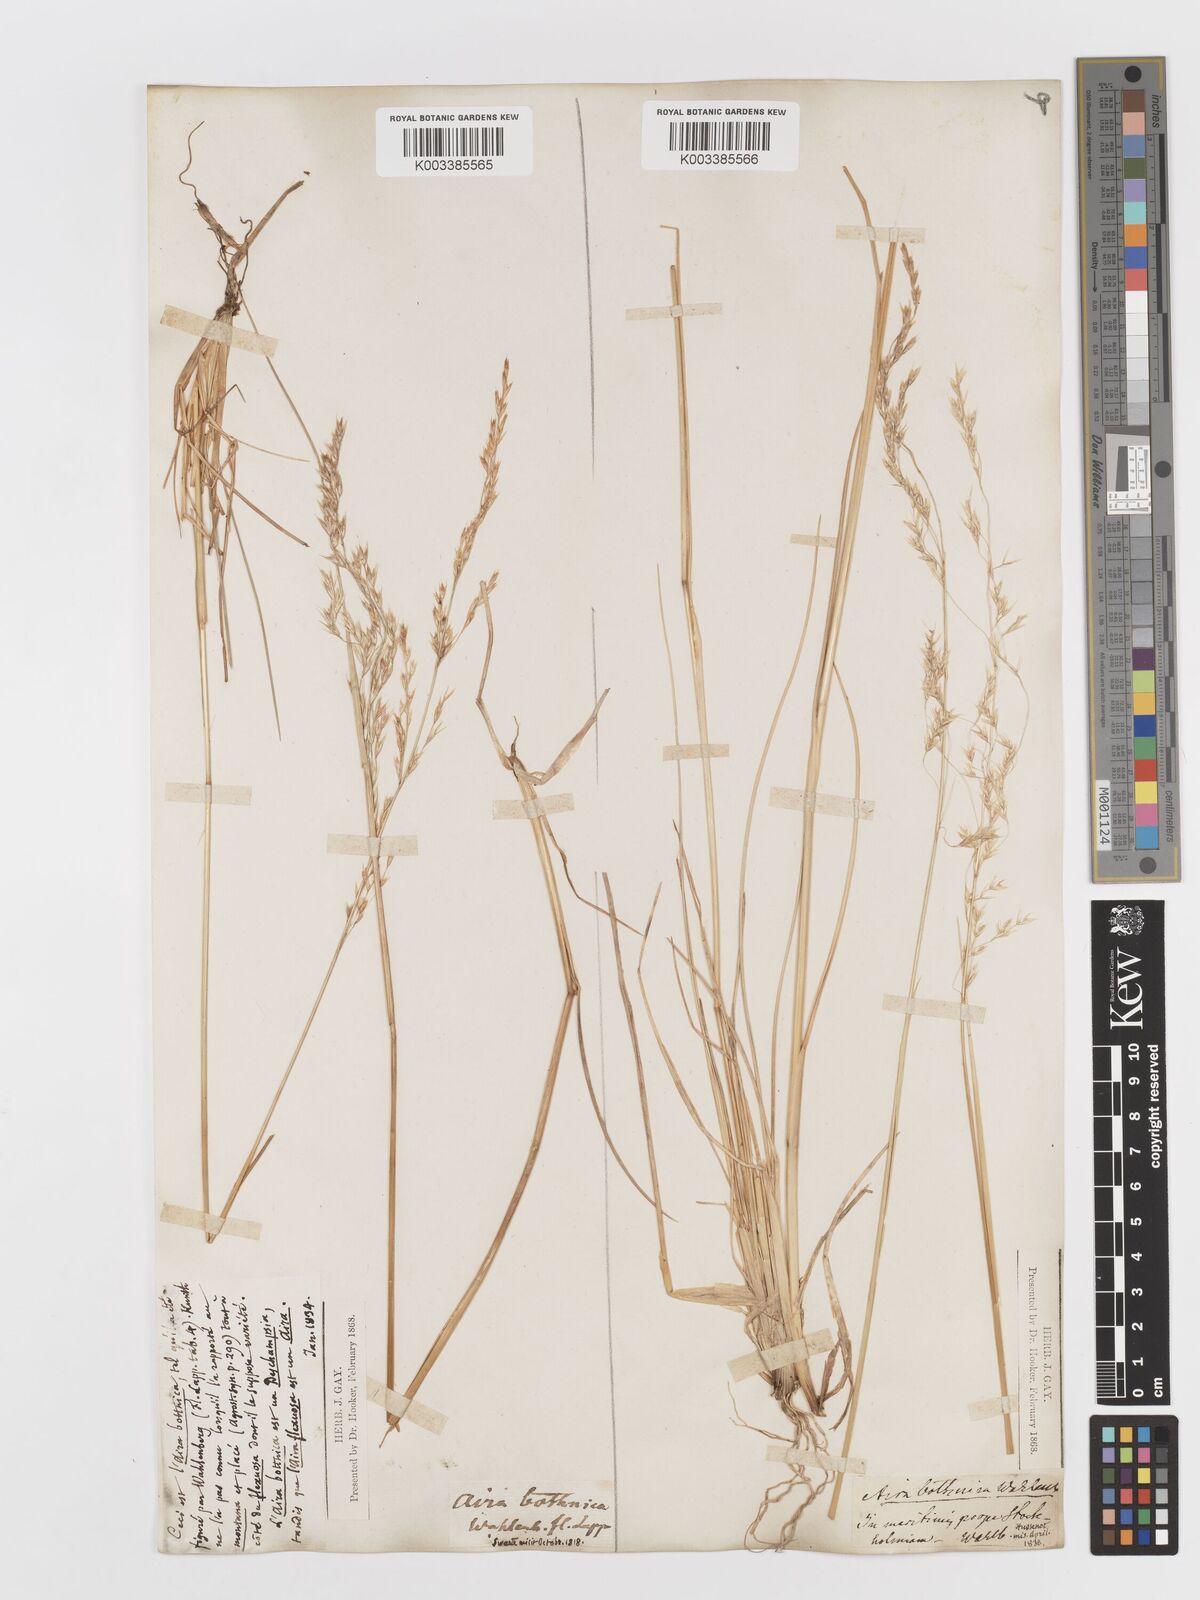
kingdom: Plantae
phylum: Tracheophyta
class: Liliopsida
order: Poales
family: Poaceae
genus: Deschampsia
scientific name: Deschampsia cespitosa
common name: Tufted hair-grass
